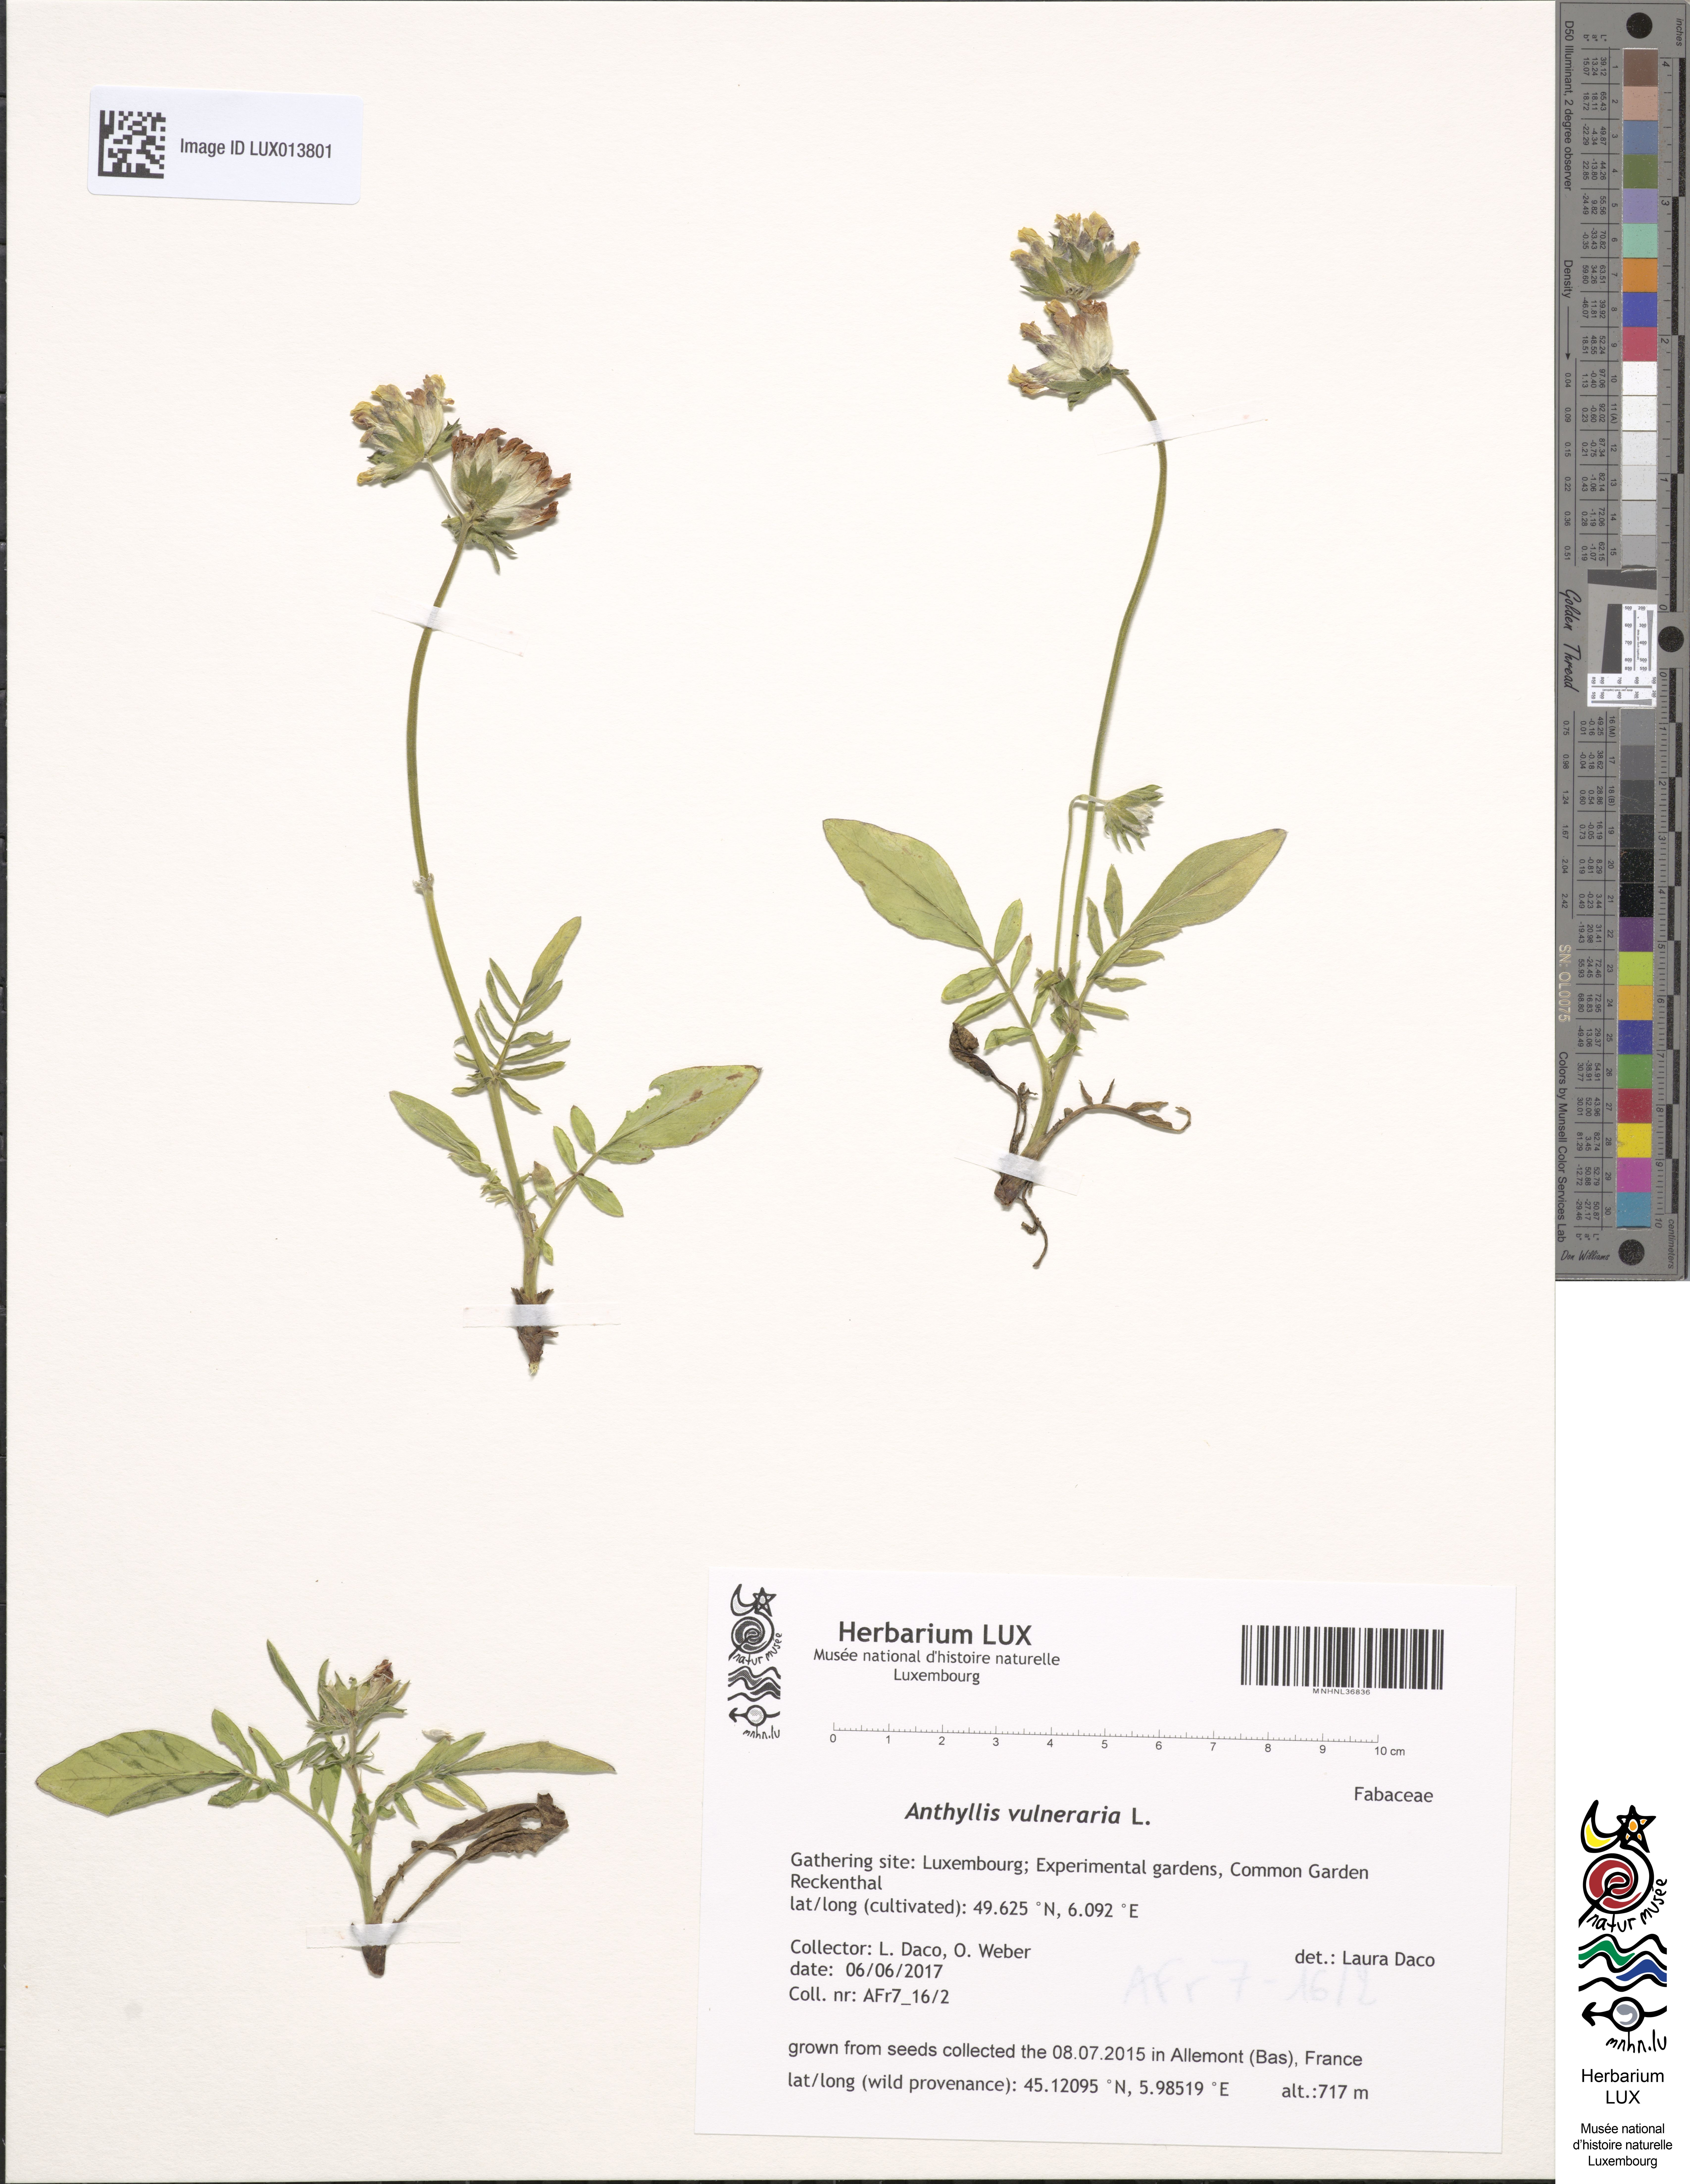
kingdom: Plantae
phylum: Tracheophyta
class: Magnoliopsida
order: Fabales
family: Fabaceae
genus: Anthyllis
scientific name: Anthyllis vulneraria
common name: Kidney vetch
